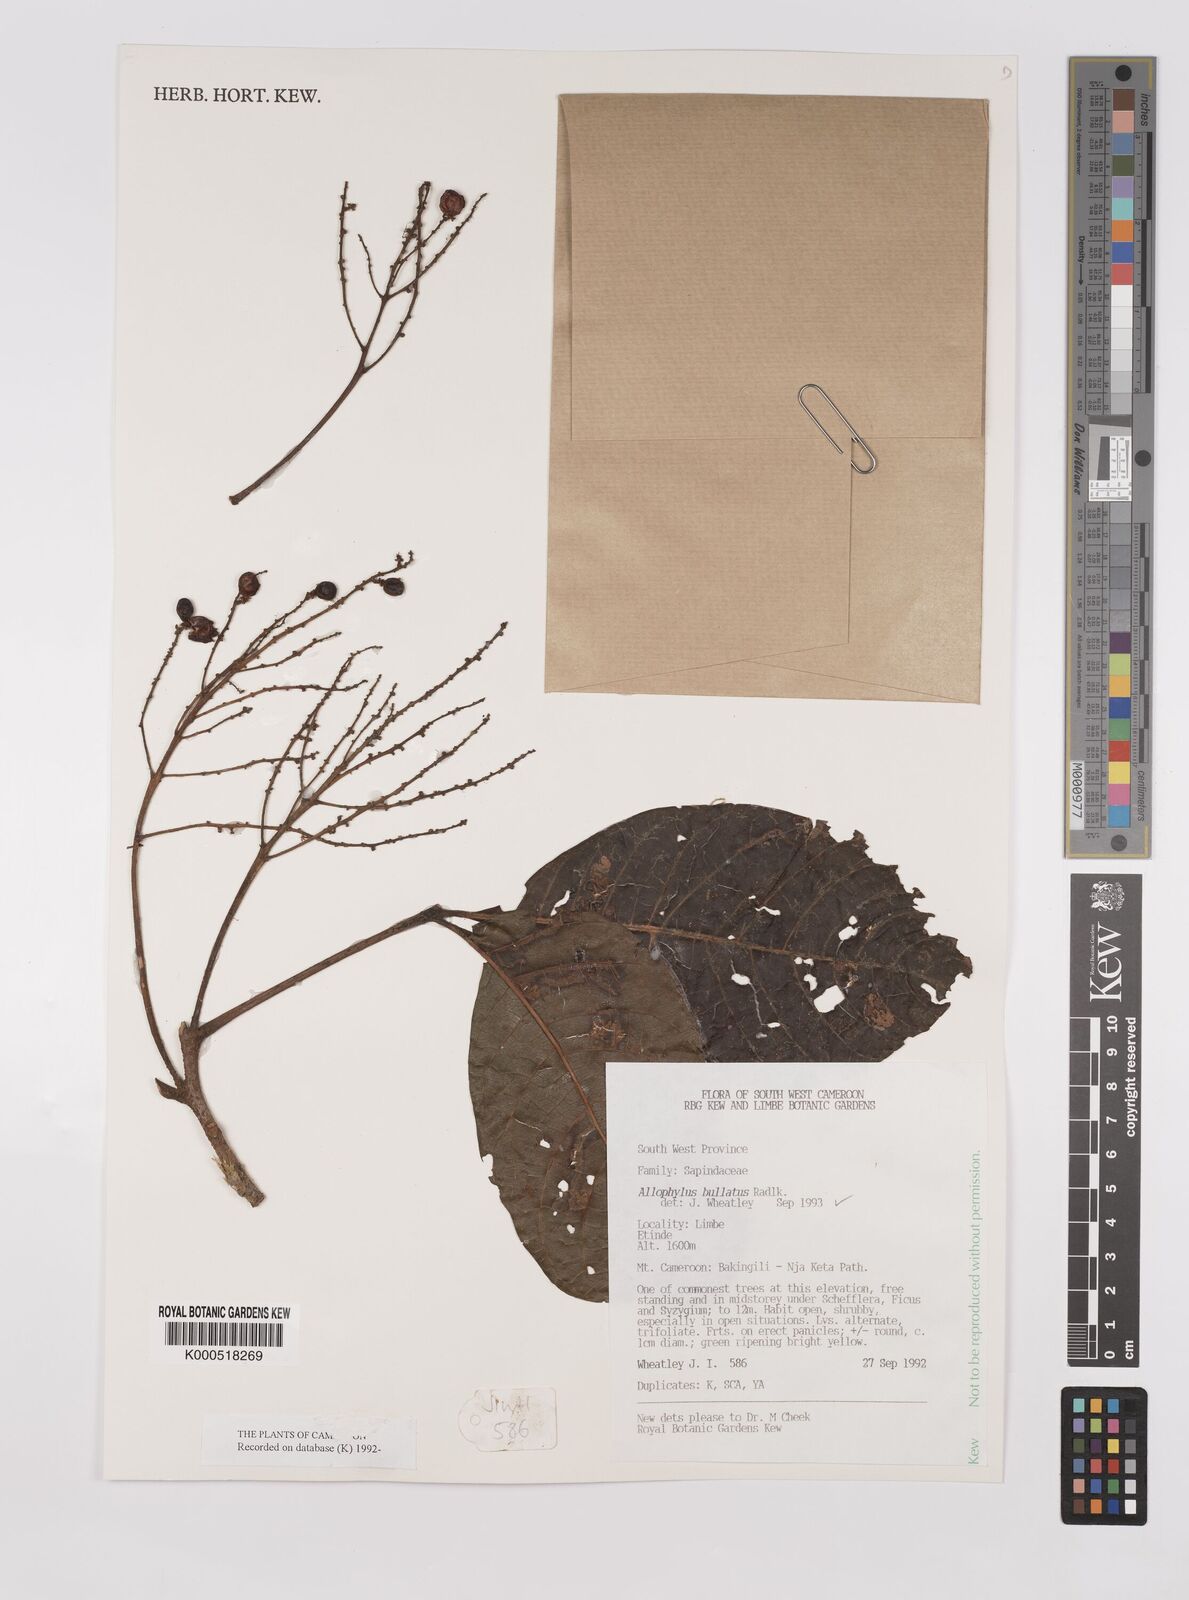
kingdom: Plantae
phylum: Tracheophyta
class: Magnoliopsida
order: Sapindales
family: Sapindaceae
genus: Allophylus
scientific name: Allophylus bullatus
